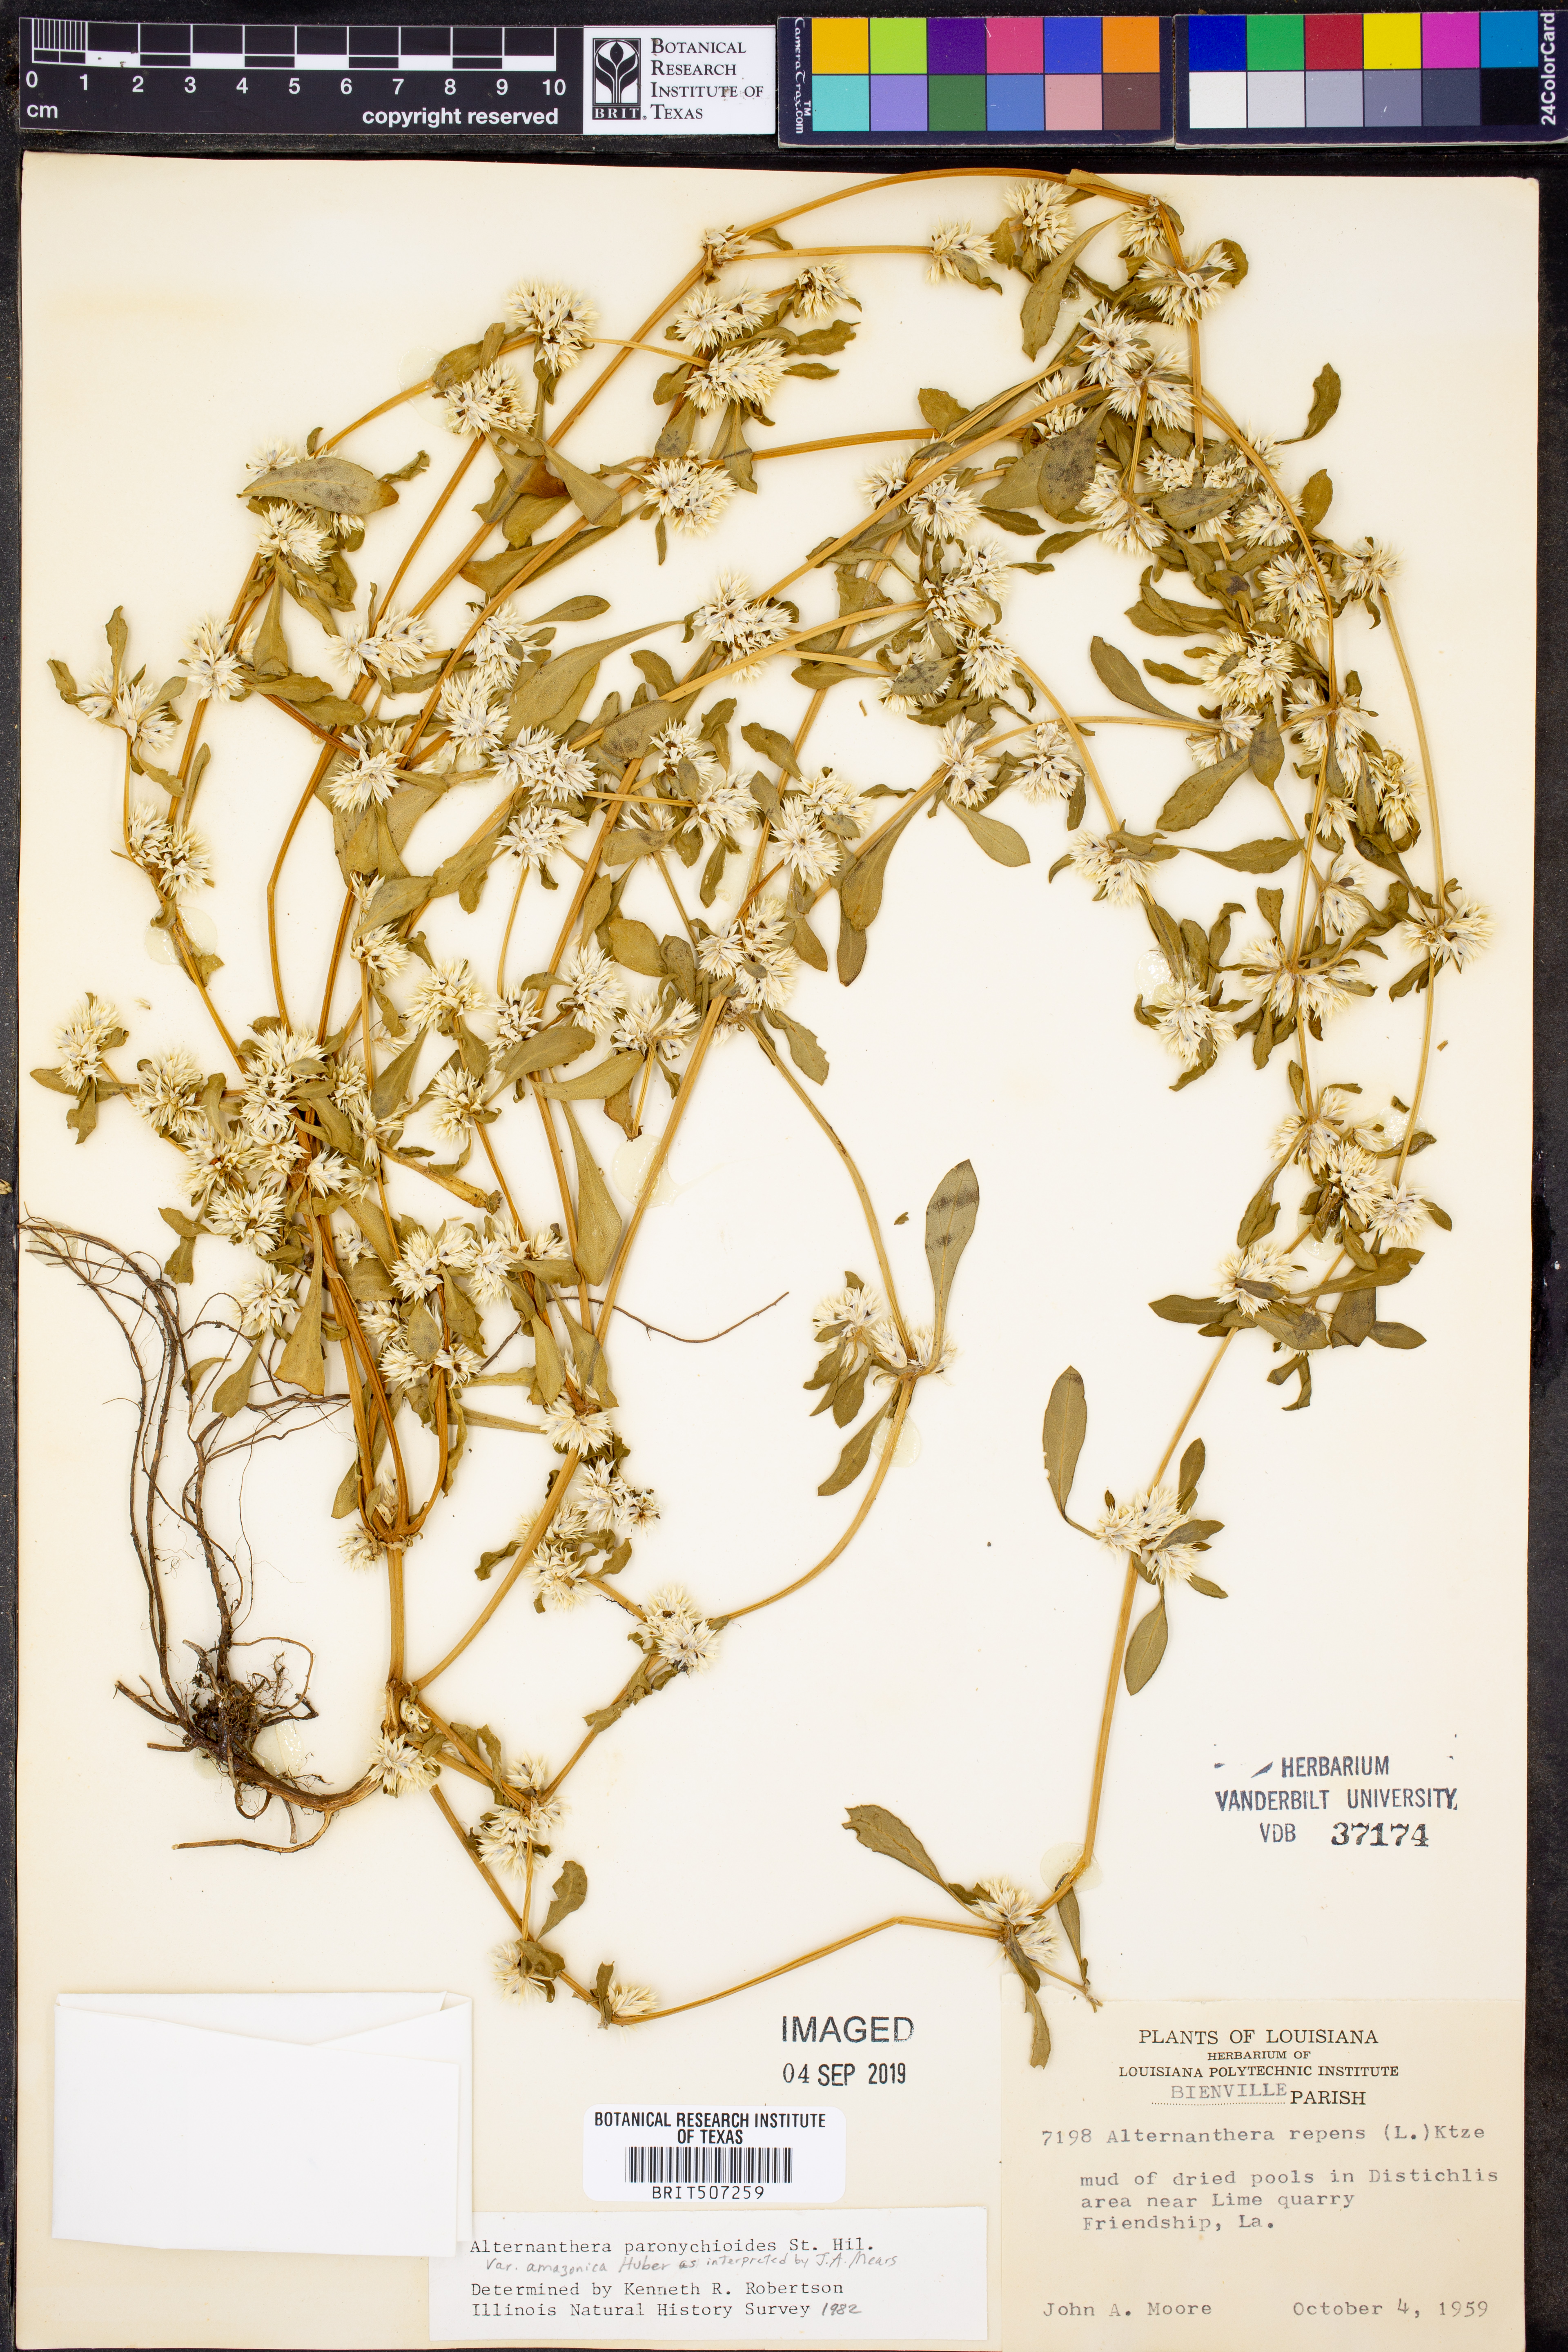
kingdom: Plantae
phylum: Tracheophyta
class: Magnoliopsida
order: Caryophyllales
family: Amaranthaceae
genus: Alternanthera
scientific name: Alternanthera paronychioides
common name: Smooth joyweed
